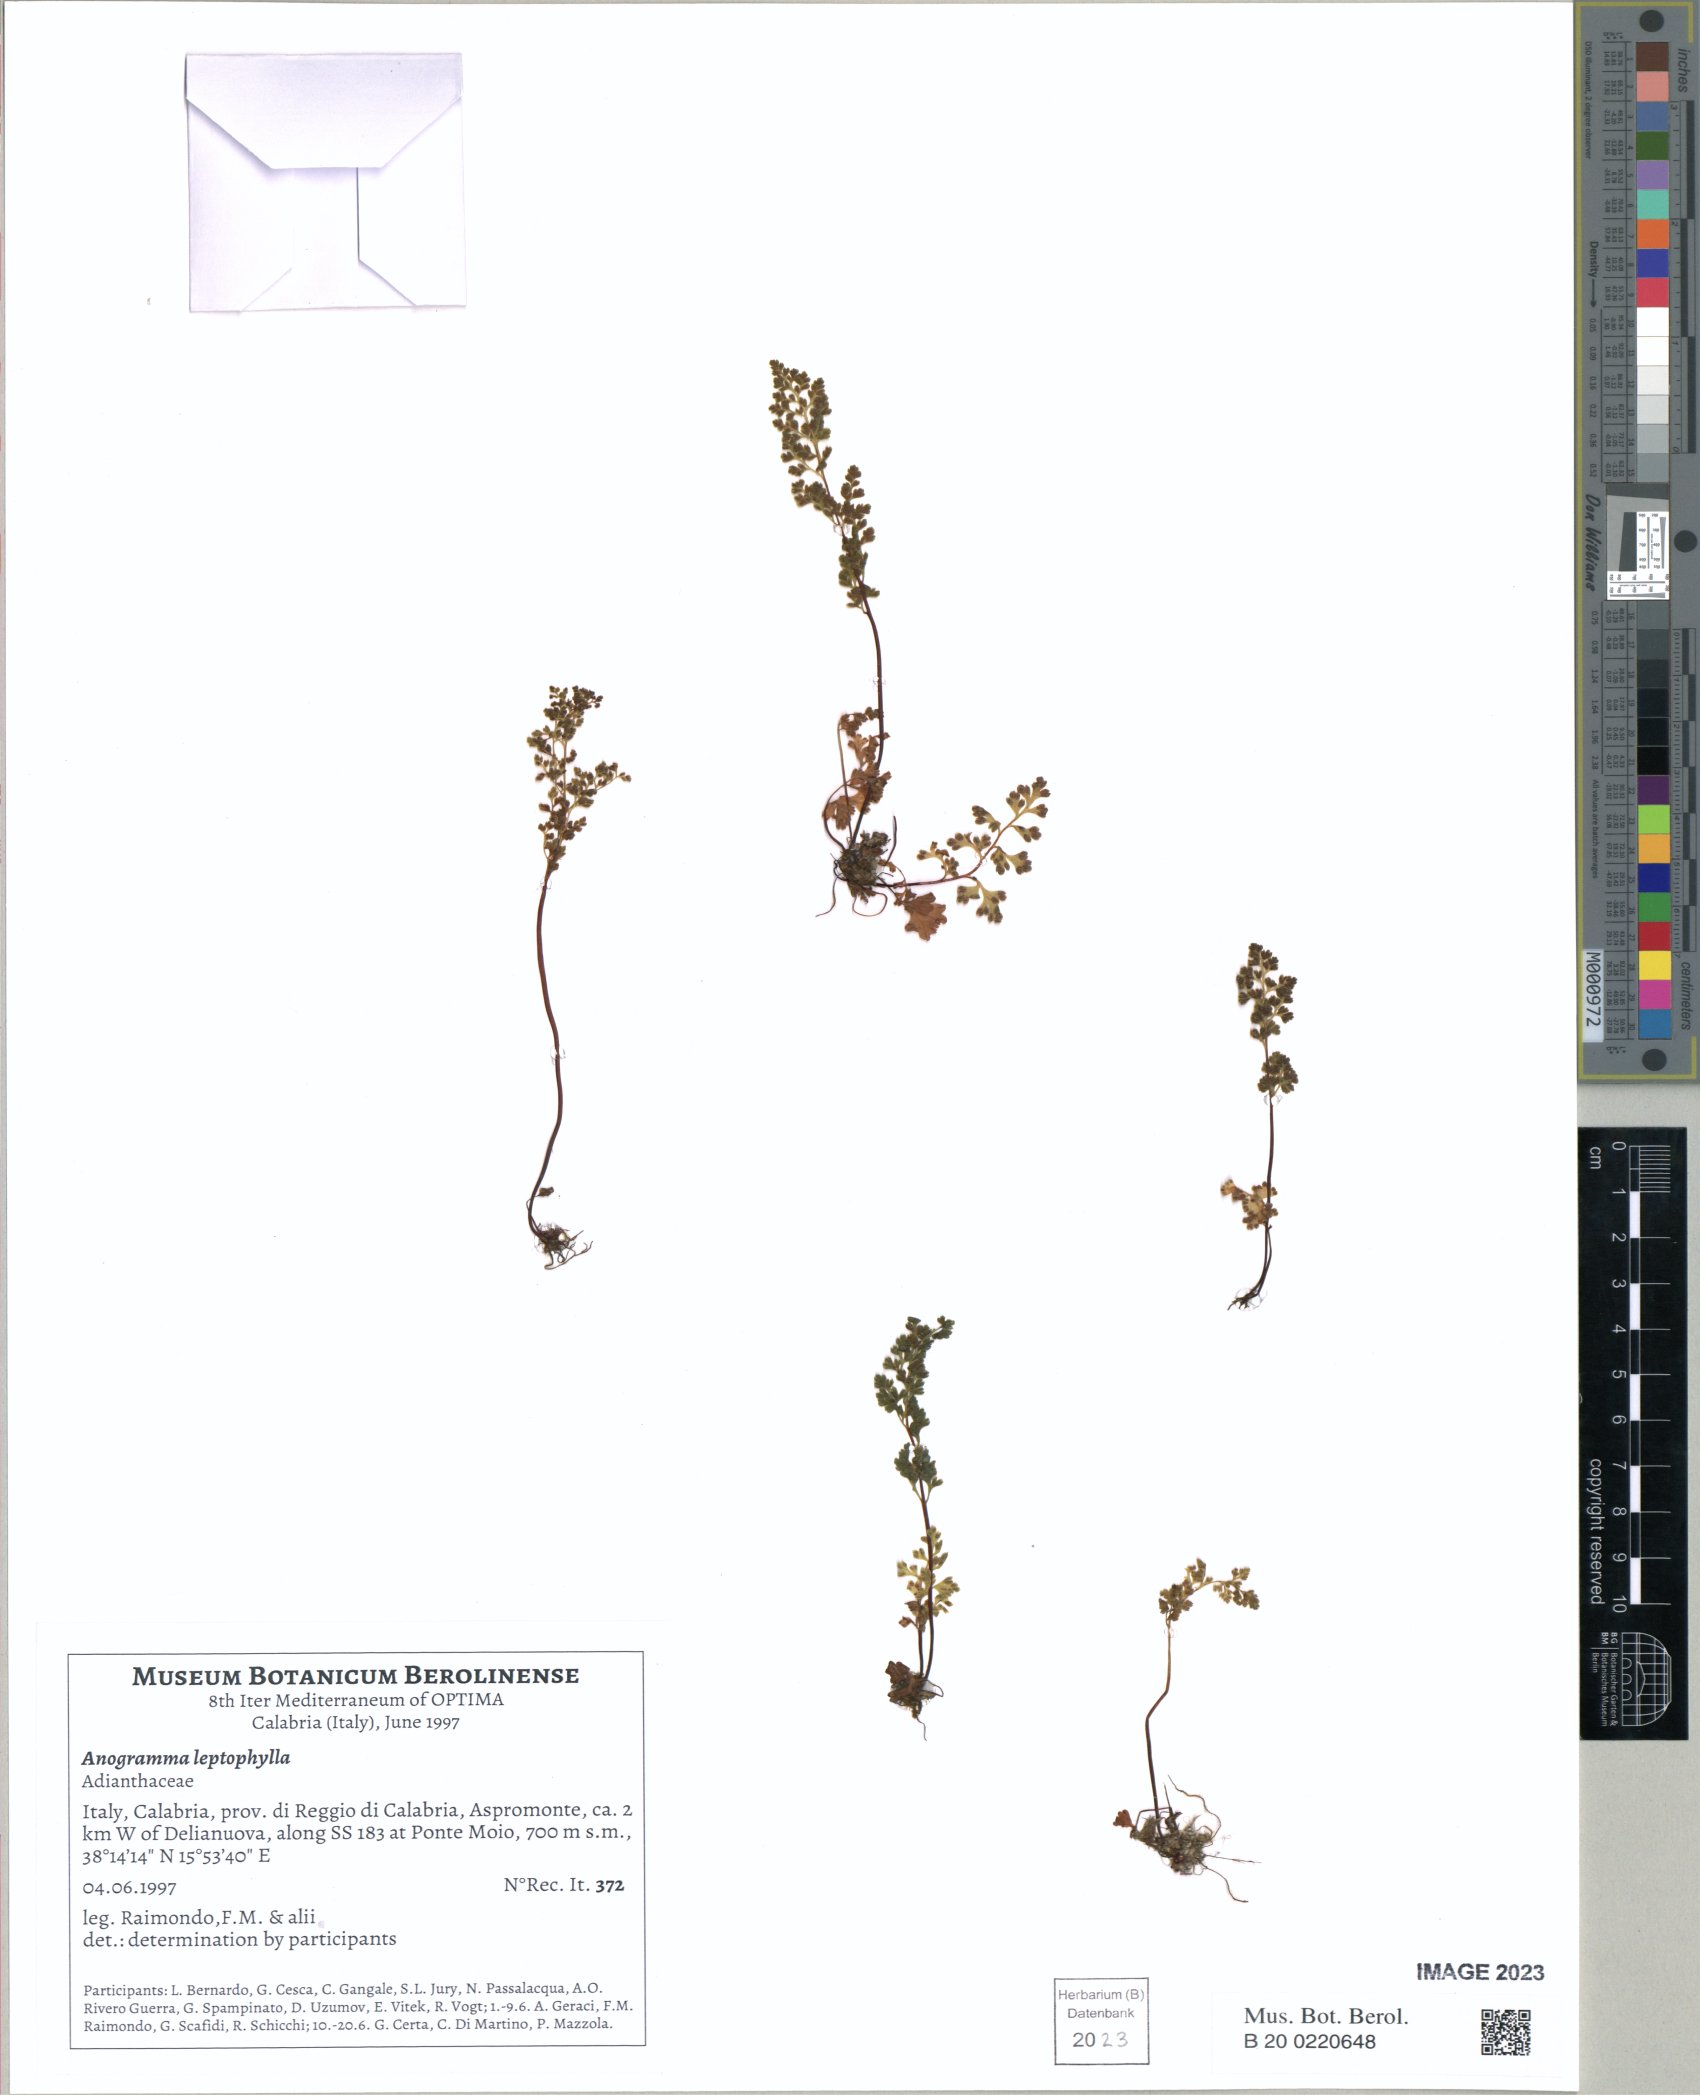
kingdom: Plantae
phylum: Tracheophyta
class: Polypodiopsida
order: Polypodiales
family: Pteridaceae
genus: Anogramma
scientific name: Anogramma leptophylla
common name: Jersey fern
